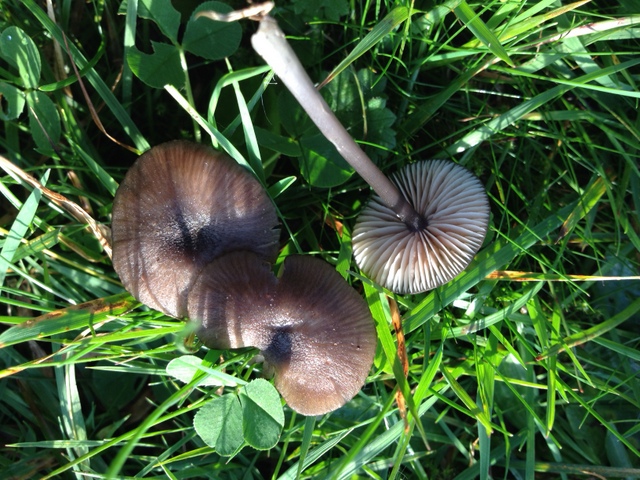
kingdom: Fungi
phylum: Basidiomycota
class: Agaricomycetes
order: Agaricales
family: Entolomataceae
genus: Entoloma
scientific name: Entoloma
